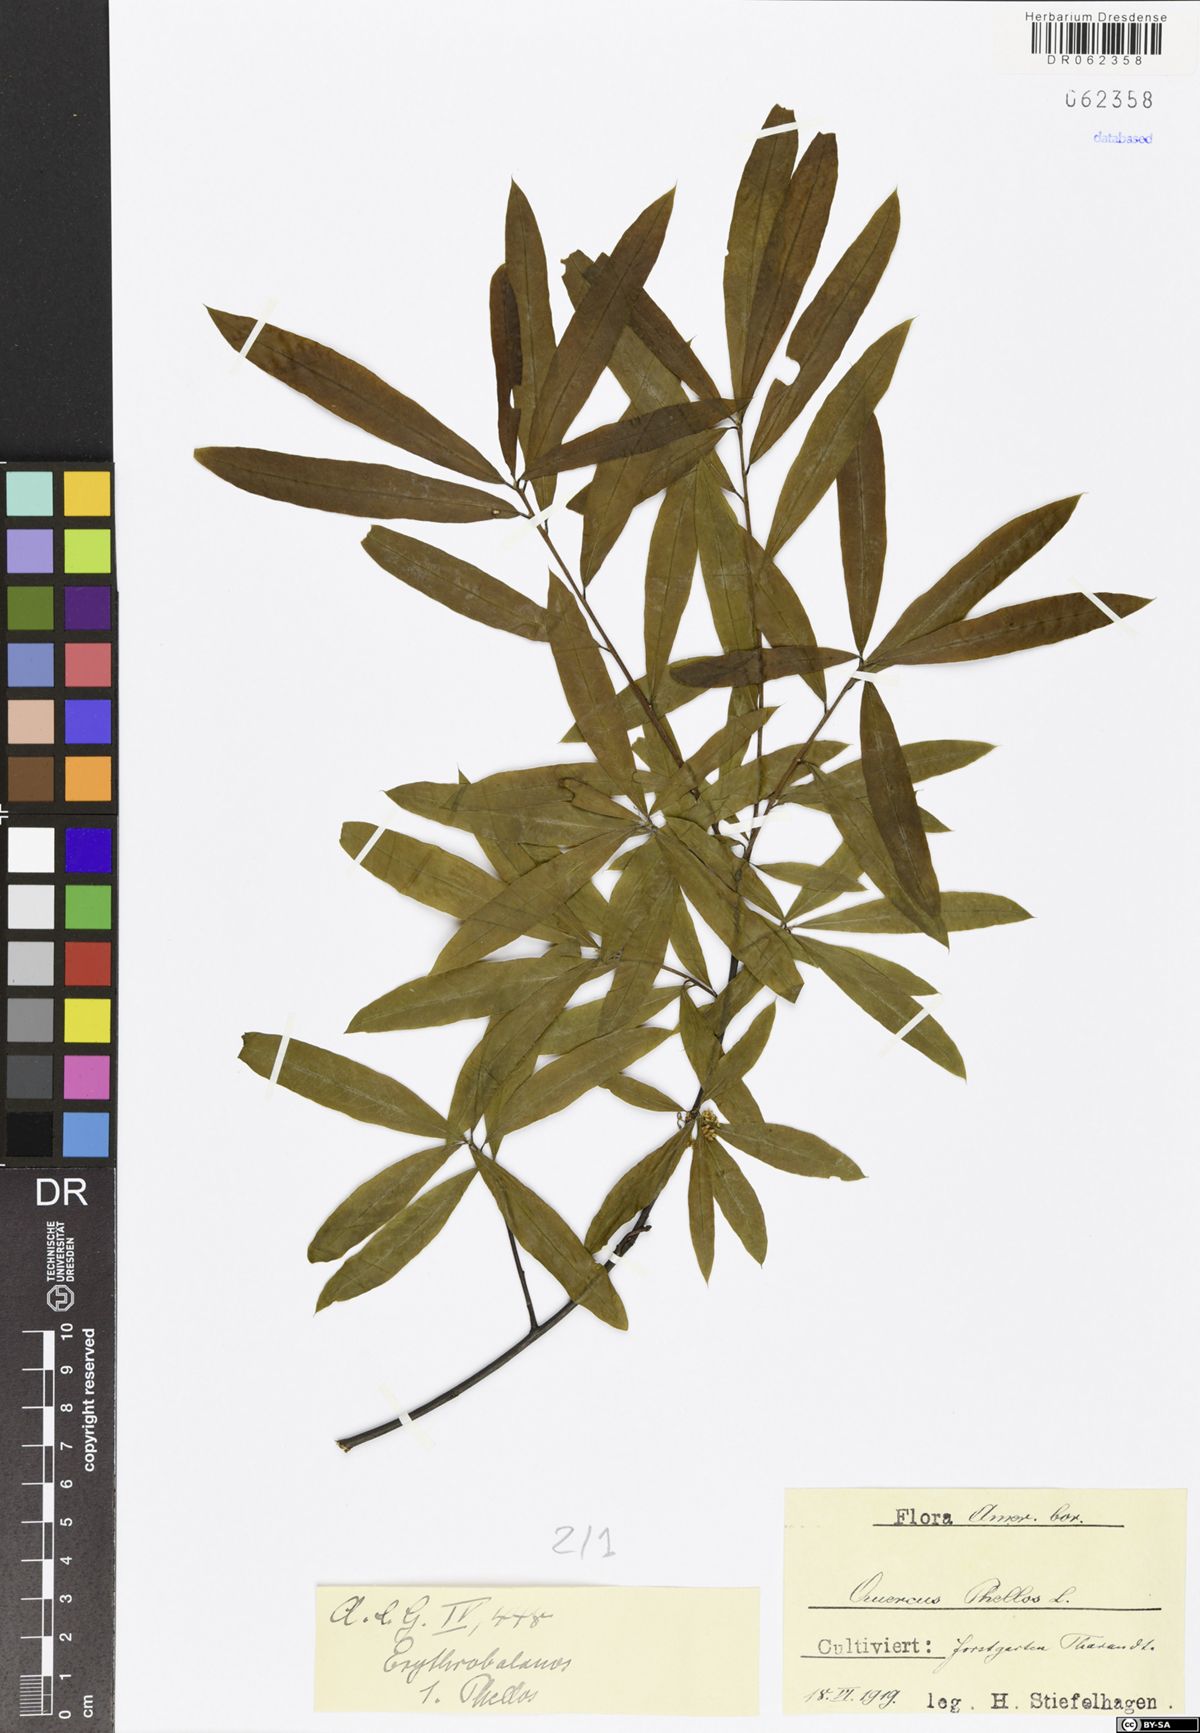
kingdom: Plantae
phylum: Tracheophyta
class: Magnoliopsida
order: Fagales
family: Fagaceae
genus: Quercus
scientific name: Quercus phellos
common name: Willow oak
